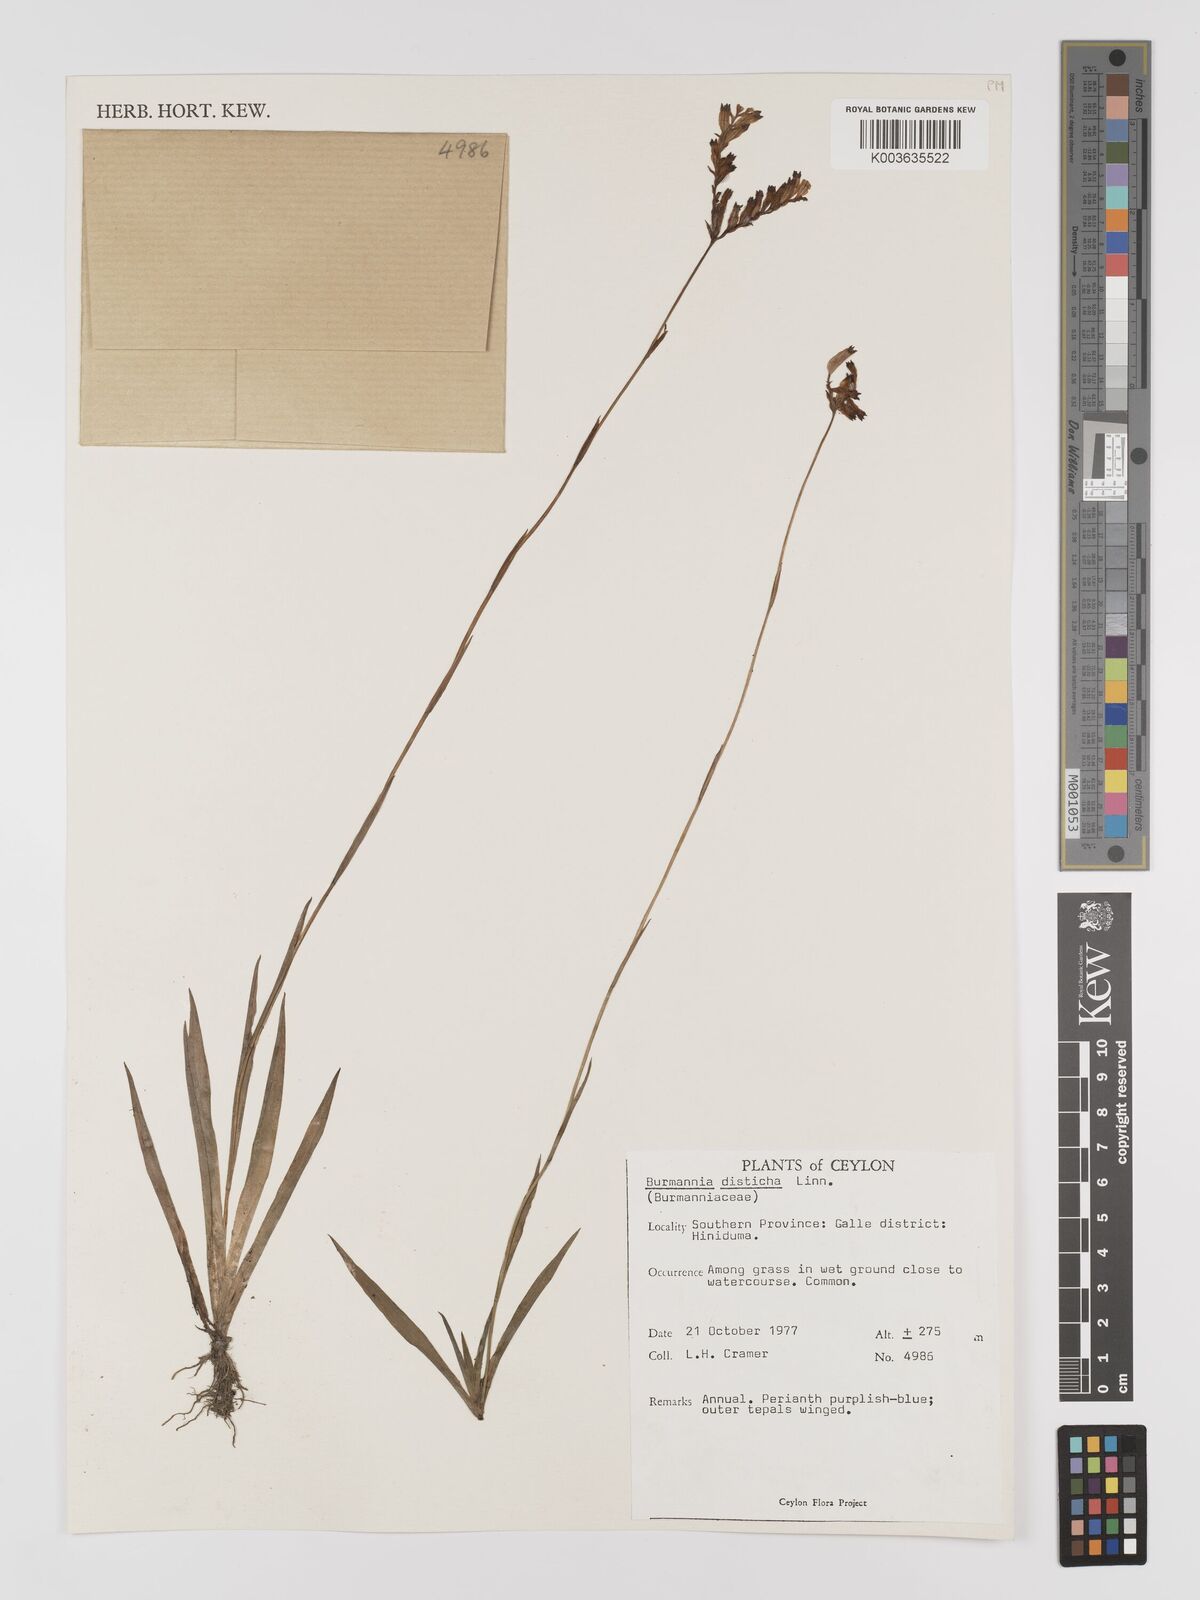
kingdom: Plantae
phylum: Tracheophyta
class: Liliopsida
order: Dioscoreales
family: Burmanniaceae
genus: Burmannia
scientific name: Burmannia disticha
